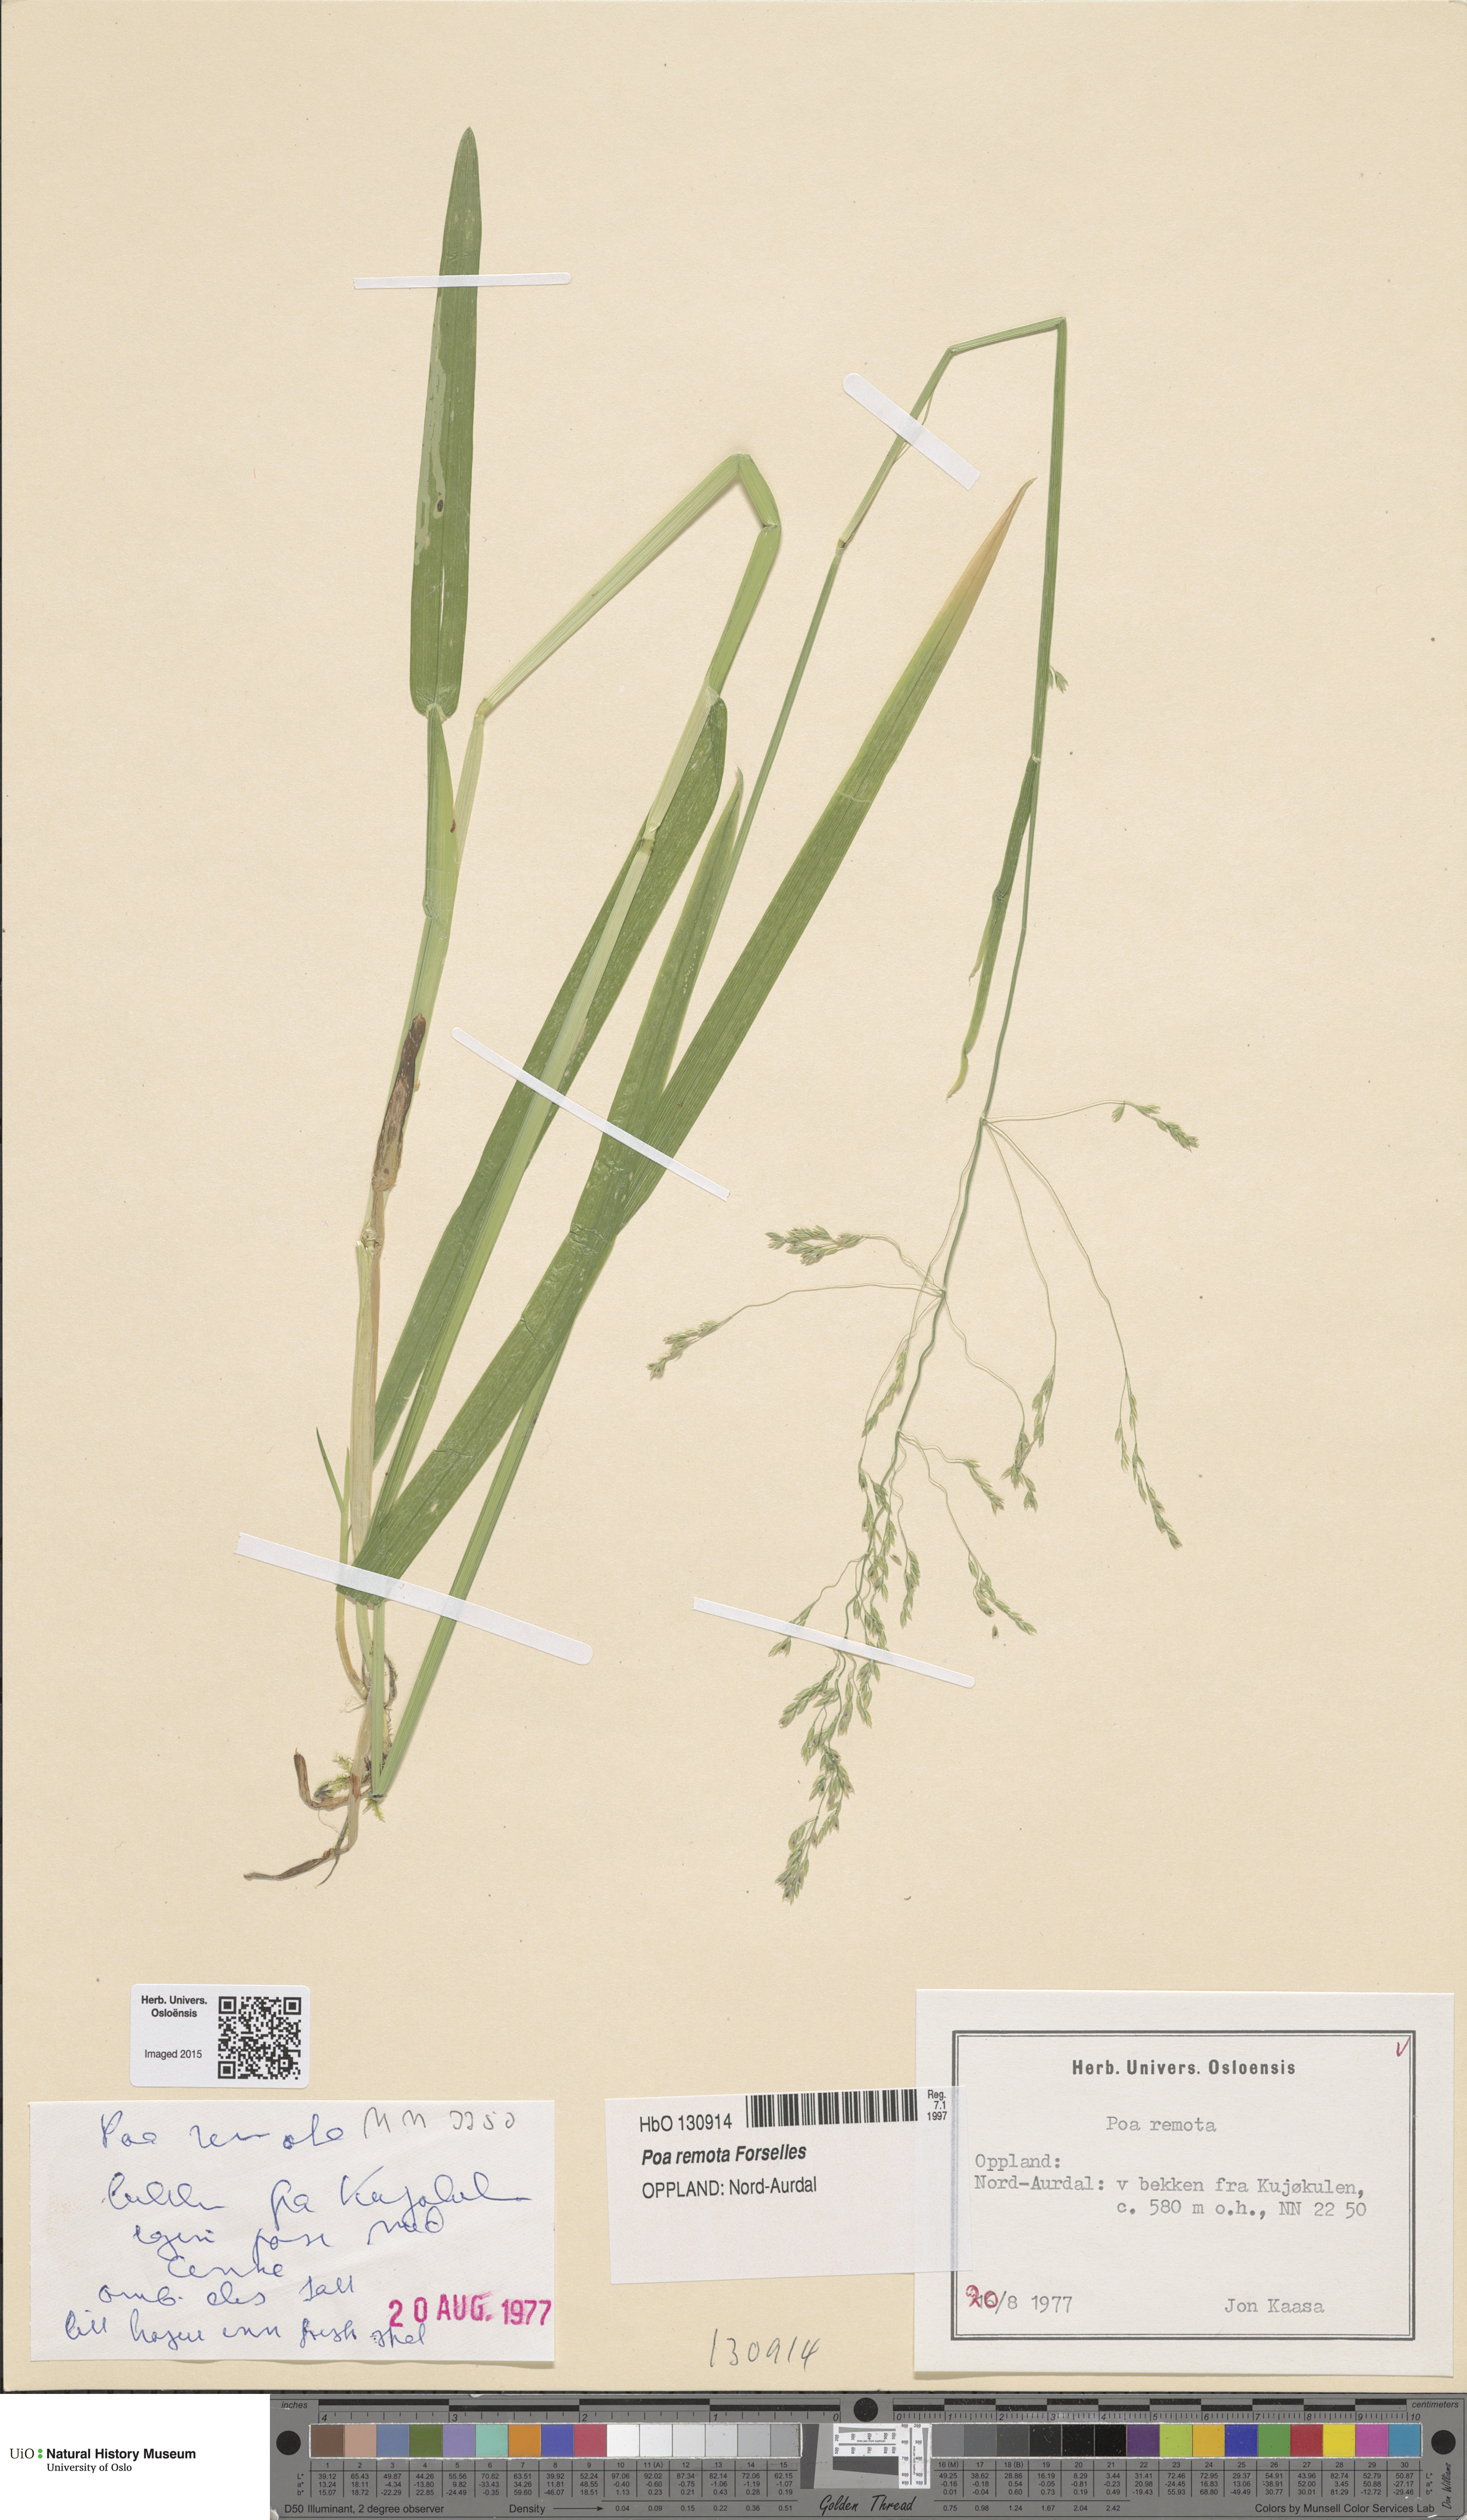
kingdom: Plantae
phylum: Tracheophyta
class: Liliopsida
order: Poales
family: Poaceae
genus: Poa
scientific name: Poa remota
